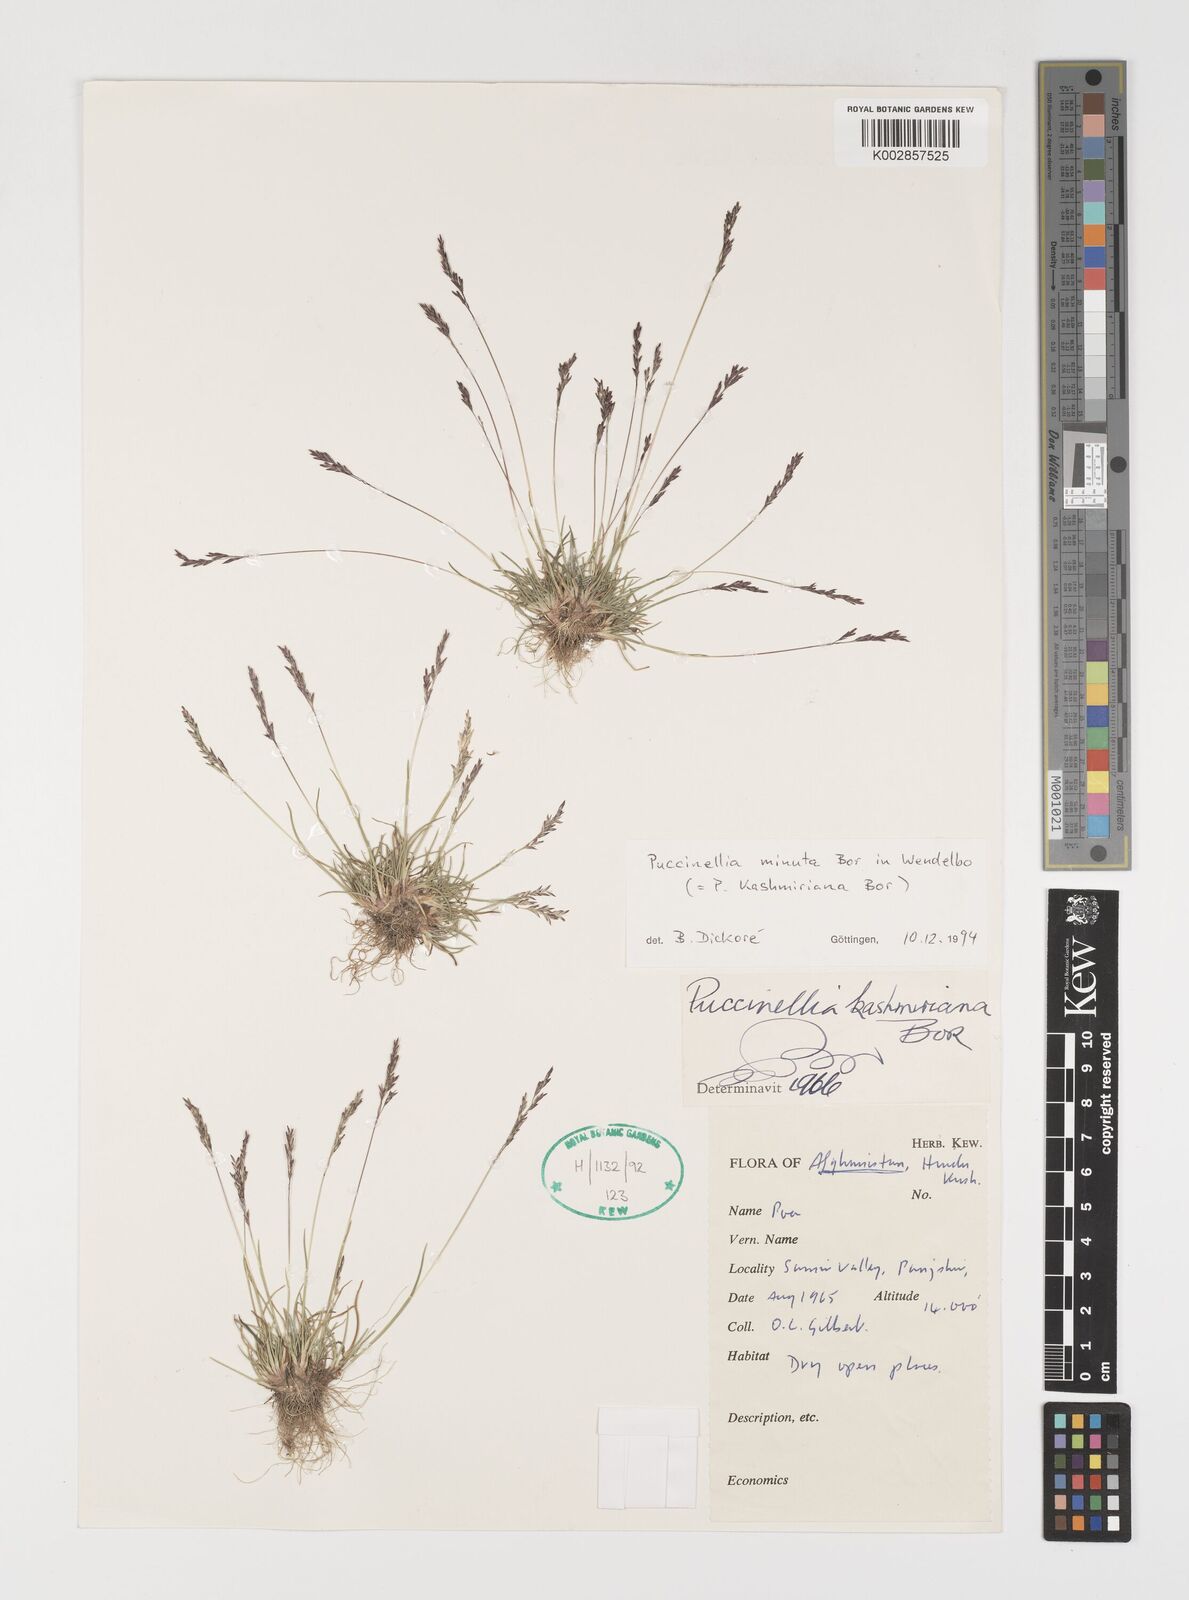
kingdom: Plantae
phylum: Tracheophyta
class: Liliopsida
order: Poales
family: Poaceae
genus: Puccinellia
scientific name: Puccinellia minuta
